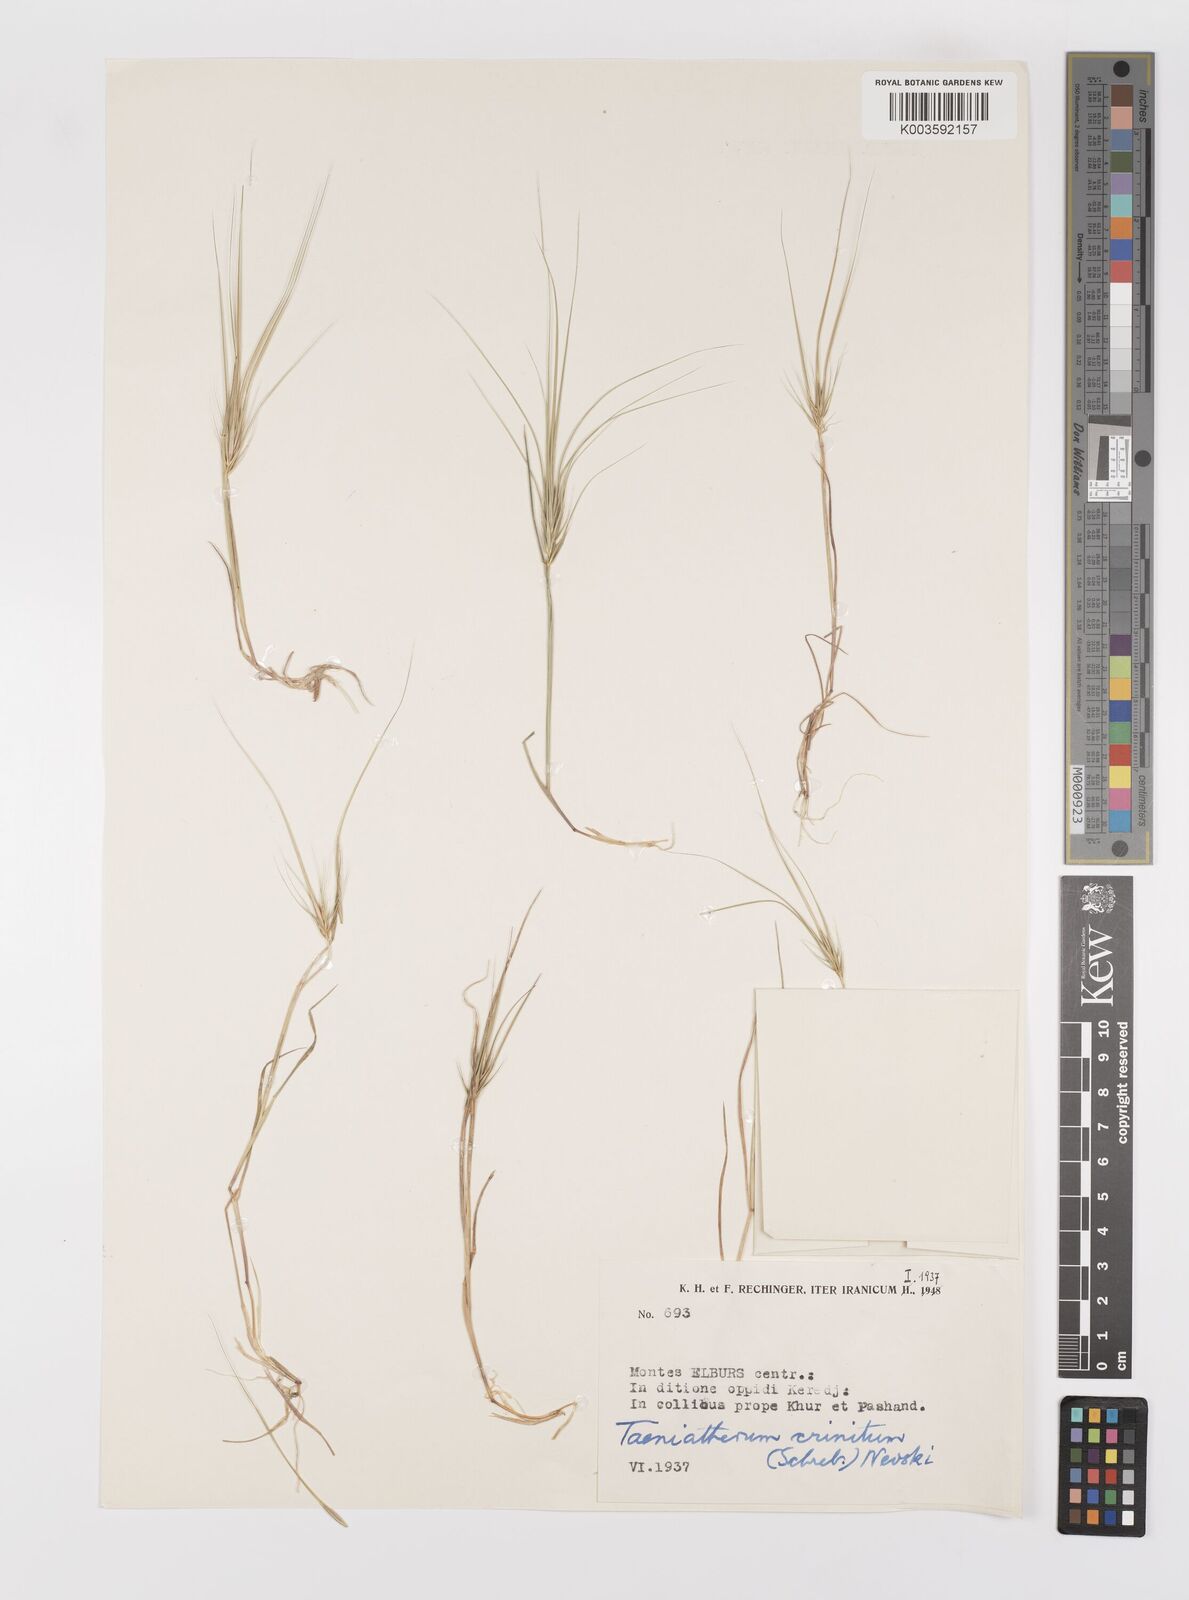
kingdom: Plantae
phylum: Tracheophyta
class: Liliopsida
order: Poales
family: Poaceae
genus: Taeniatherum
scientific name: Taeniatherum caput-medusae
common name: Medusahead
